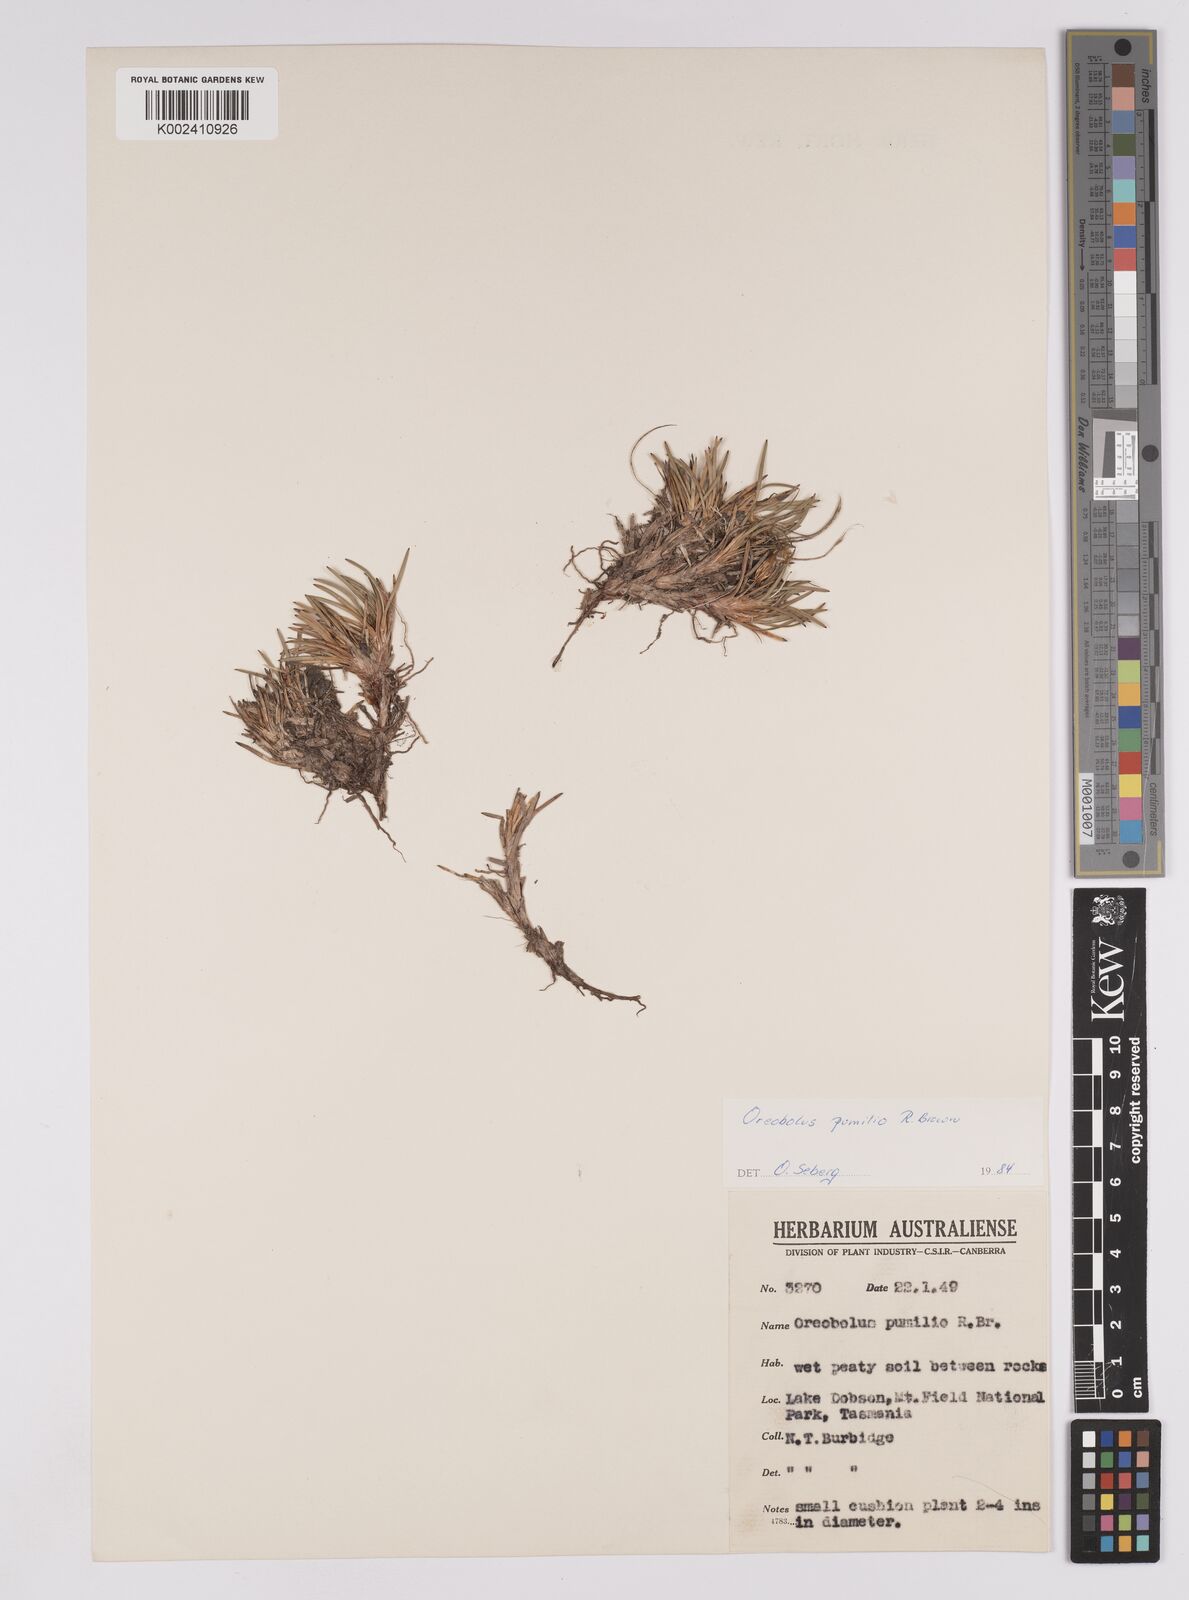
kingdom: Plantae
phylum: Tracheophyta
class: Liliopsida
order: Poales
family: Cyperaceae
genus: Oreobolus
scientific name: Oreobolus pumilio
